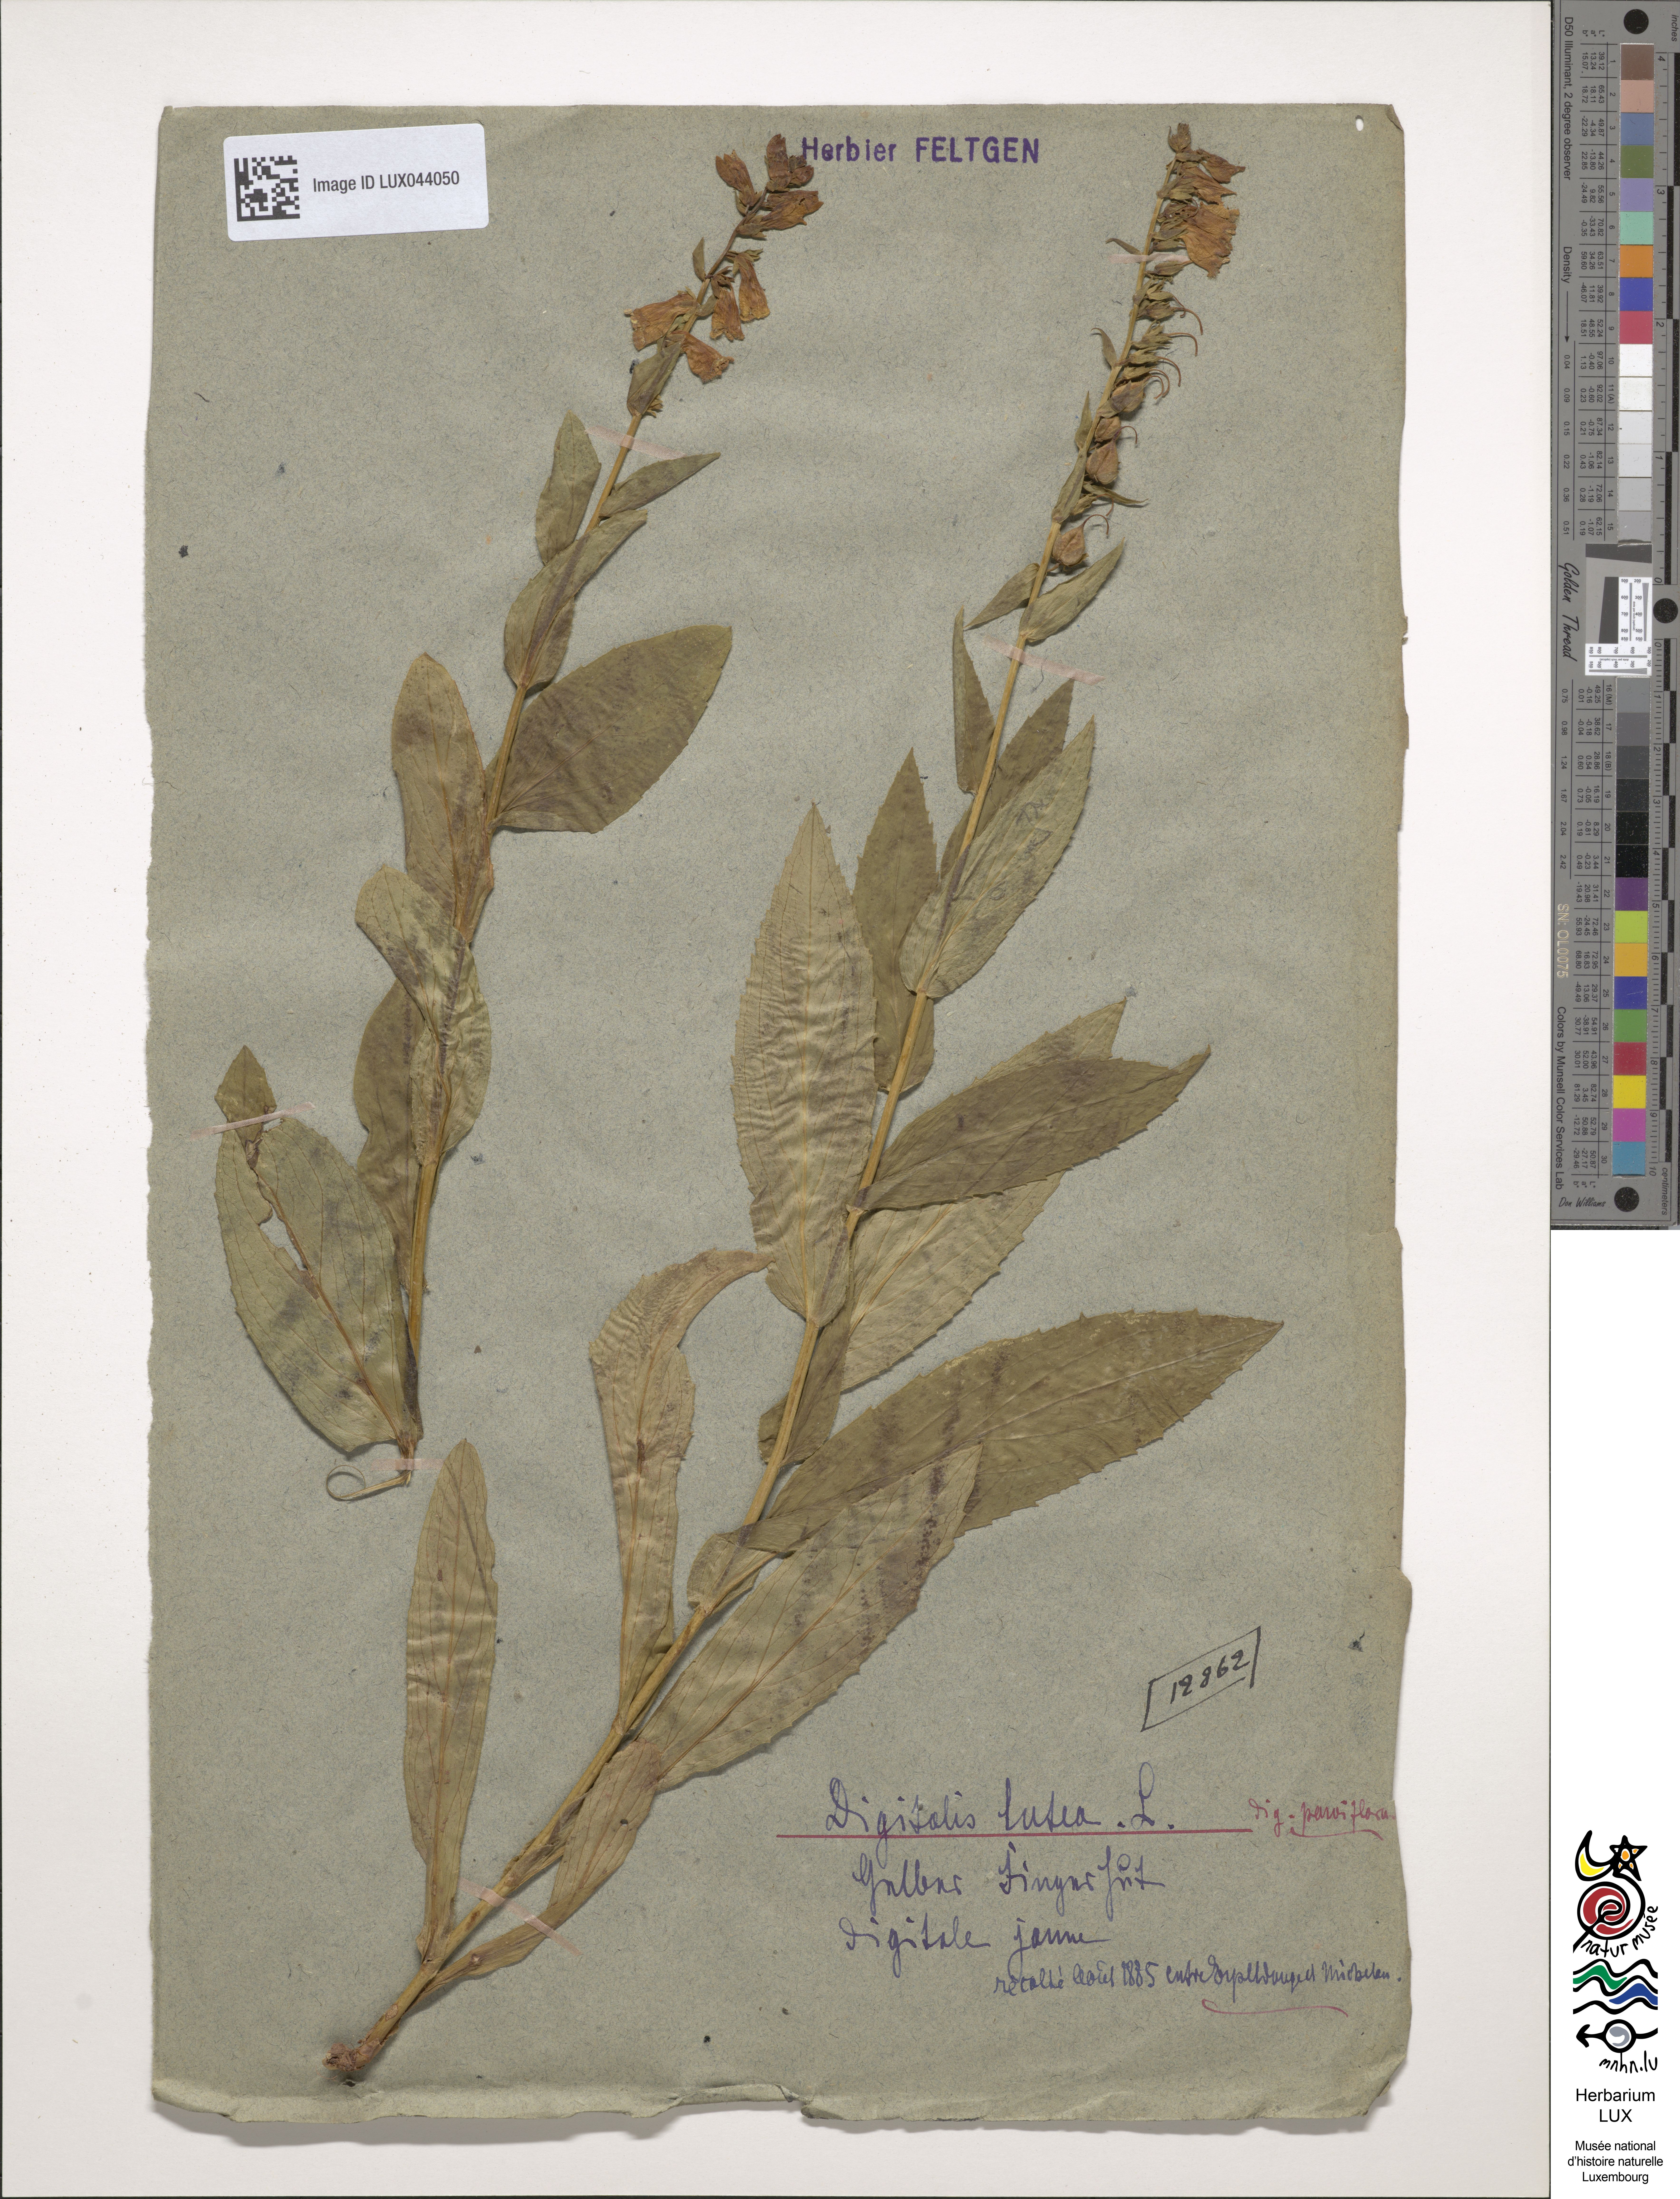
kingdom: Plantae
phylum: Tracheophyta
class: Magnoliopsida
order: Lamiales
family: Plantaginaceae
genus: Digitalis
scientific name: Digitalis lutea
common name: Straw foxglove
